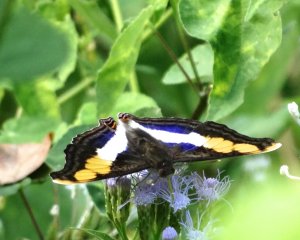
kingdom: Animalia
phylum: Arthropoda
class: Insecta
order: Lepidoptera
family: Nymphalidae
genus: Doxocopa
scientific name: Doxocopa laure
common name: Silver Emperor
